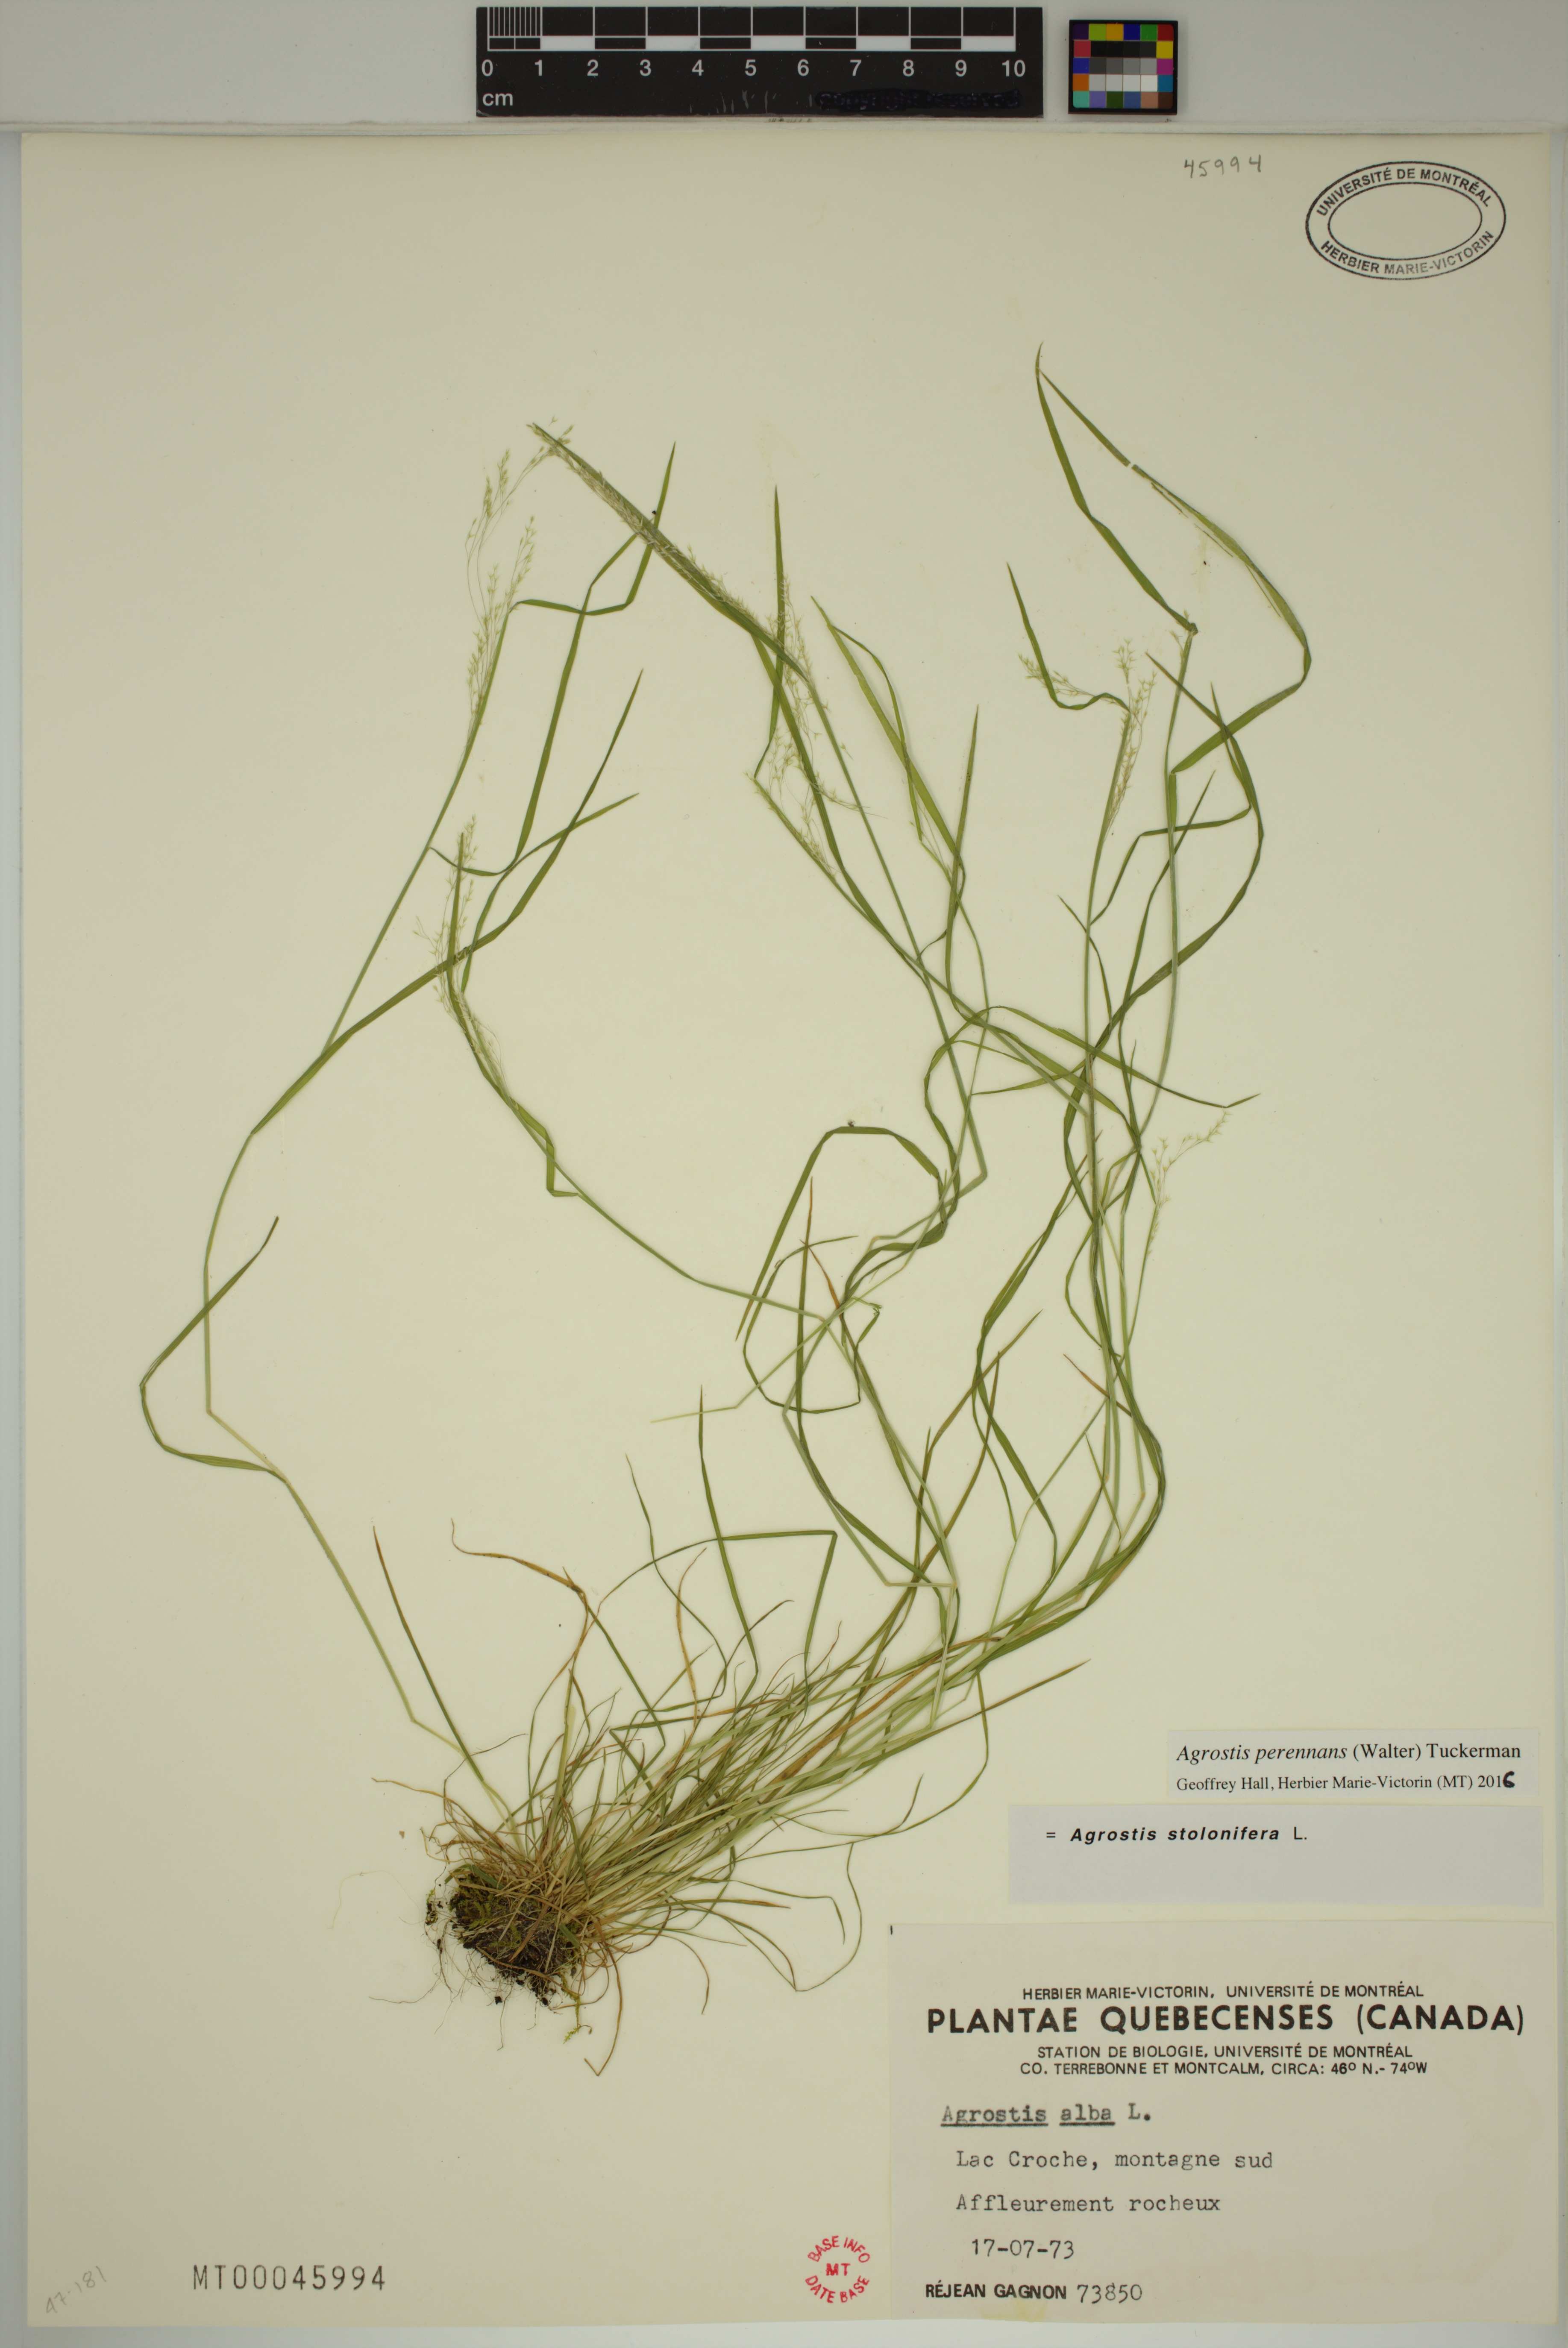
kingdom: Plantae
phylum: Tracheophyta
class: Liliopsida
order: Poales
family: Poaceae
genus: Agrostis
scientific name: Agrostis perennans
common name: Autumn bent
